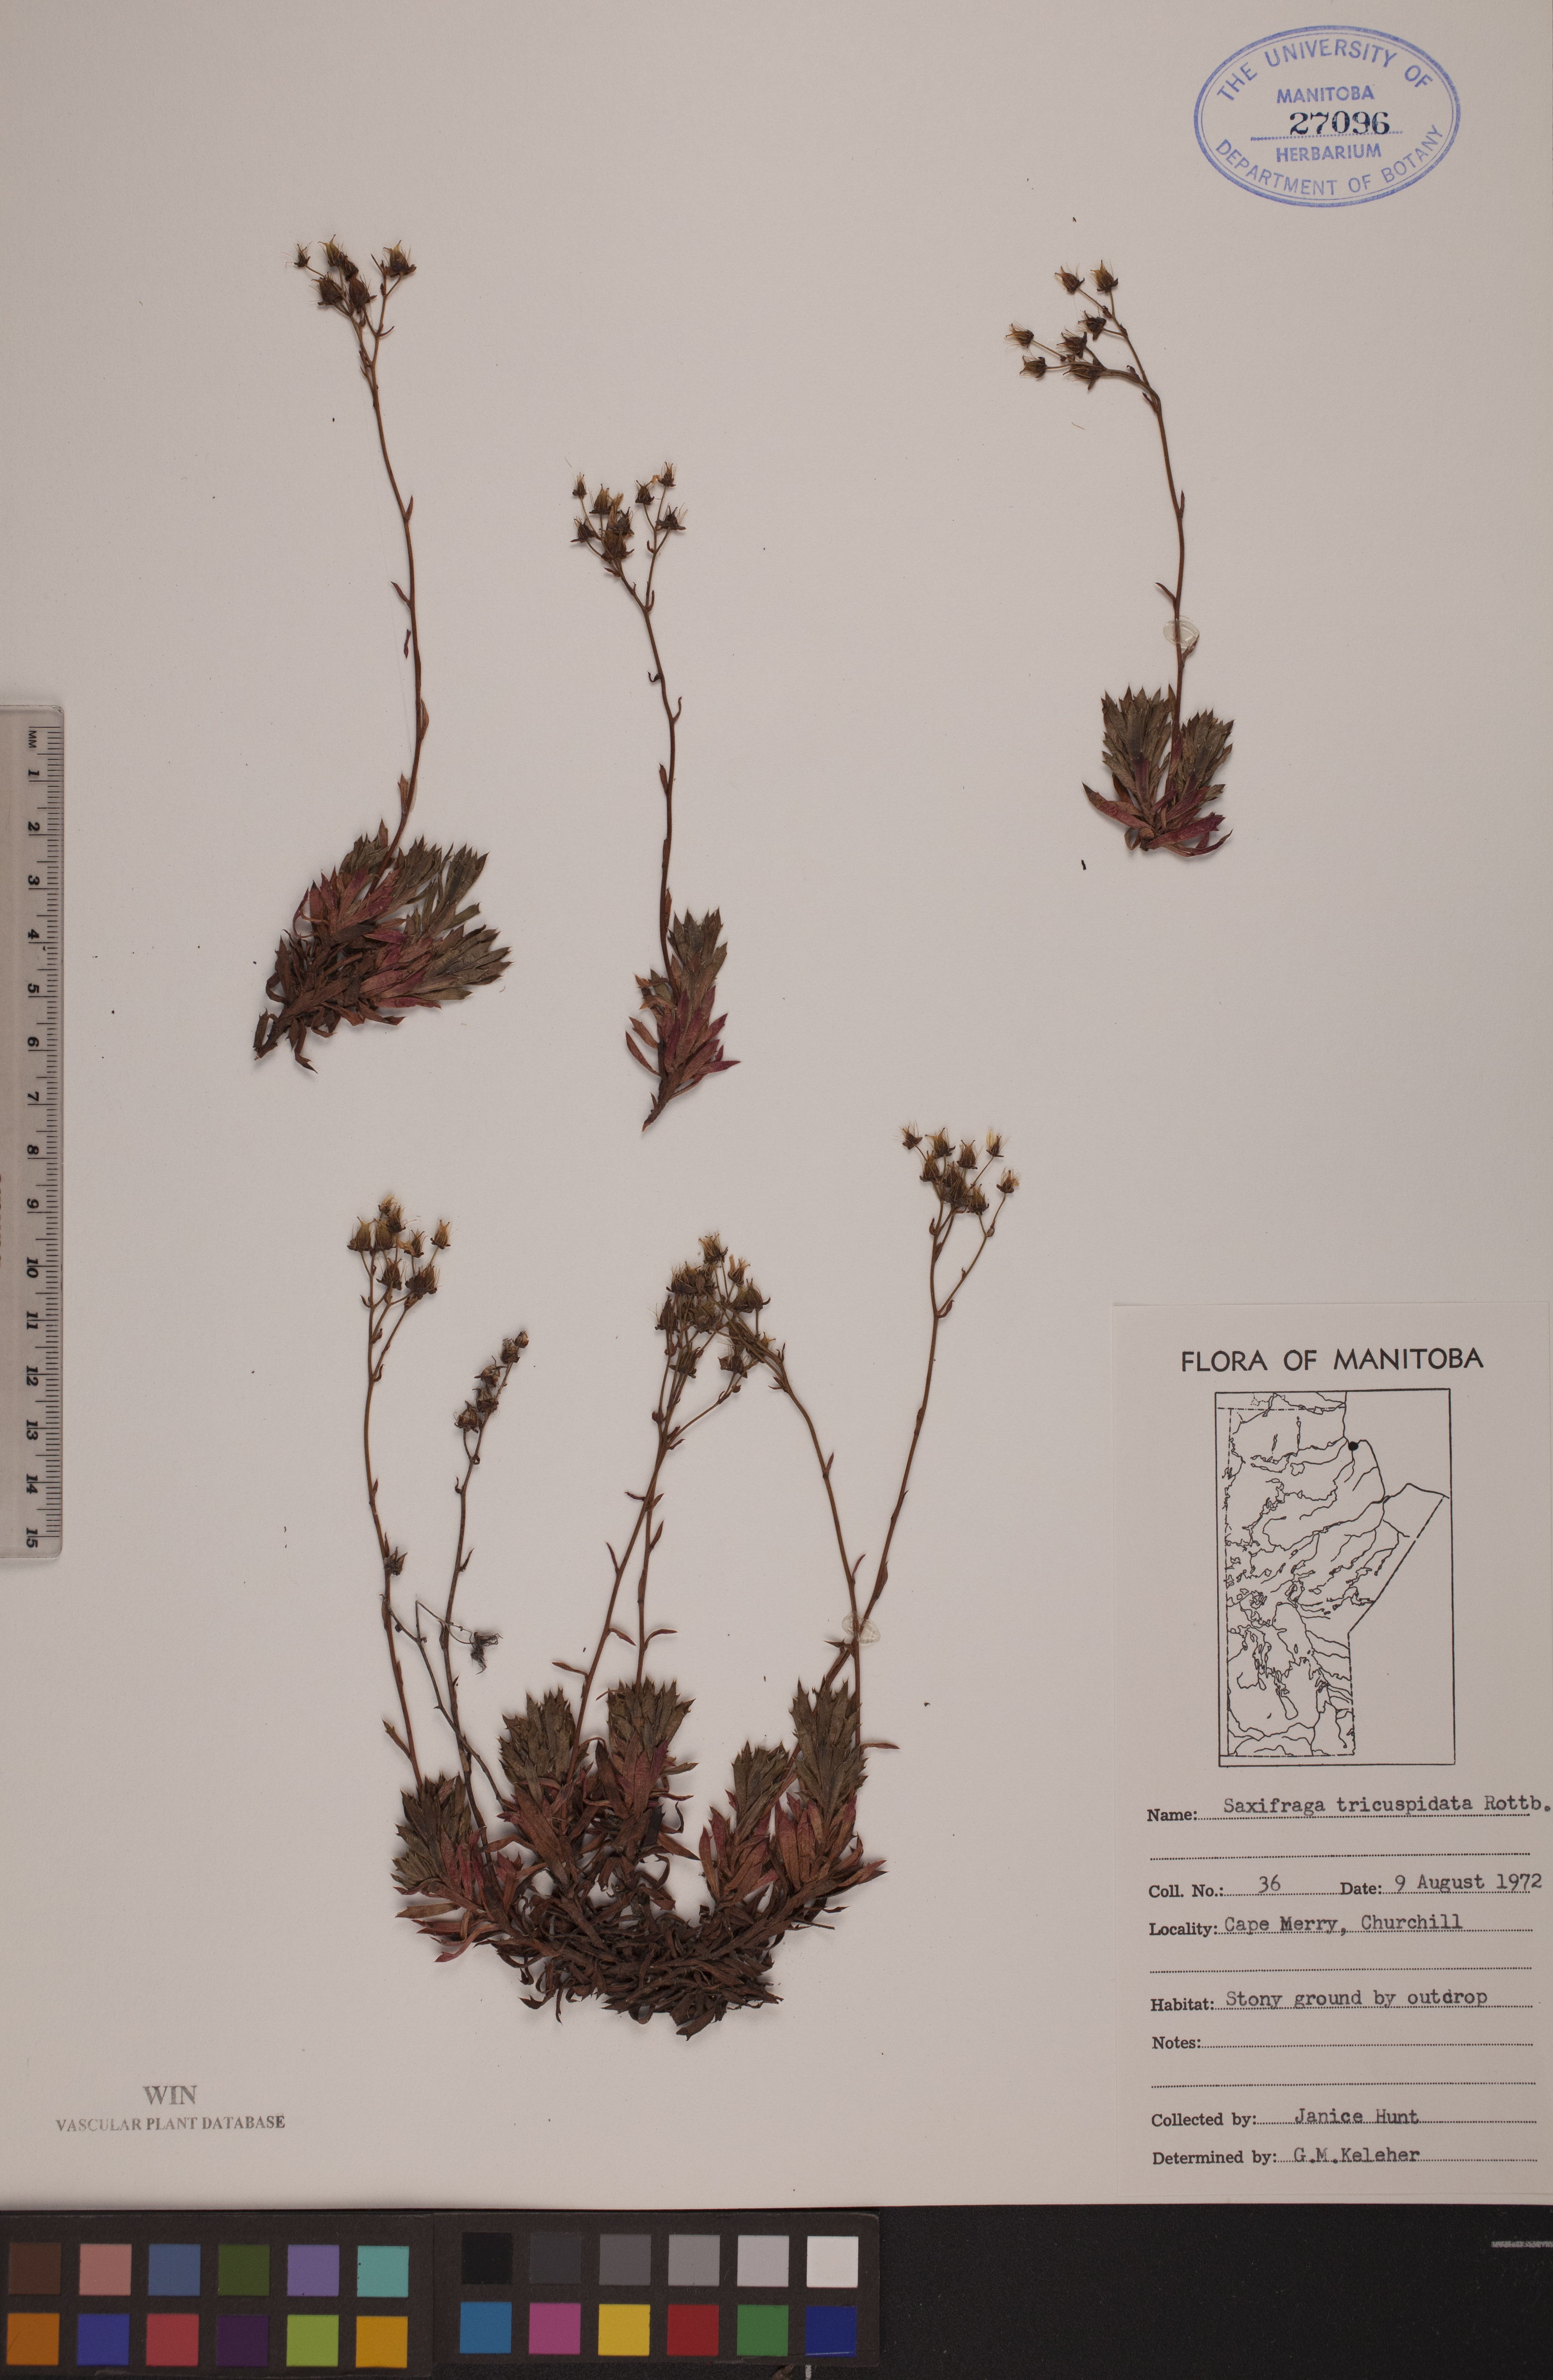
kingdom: Plantae
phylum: Tracheophyta
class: Magnoliopsida
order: Saxifragales
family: Saxifragaceae
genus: Saxifraga
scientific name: Saxifraga tricuspidata
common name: Prickly saxifrage
